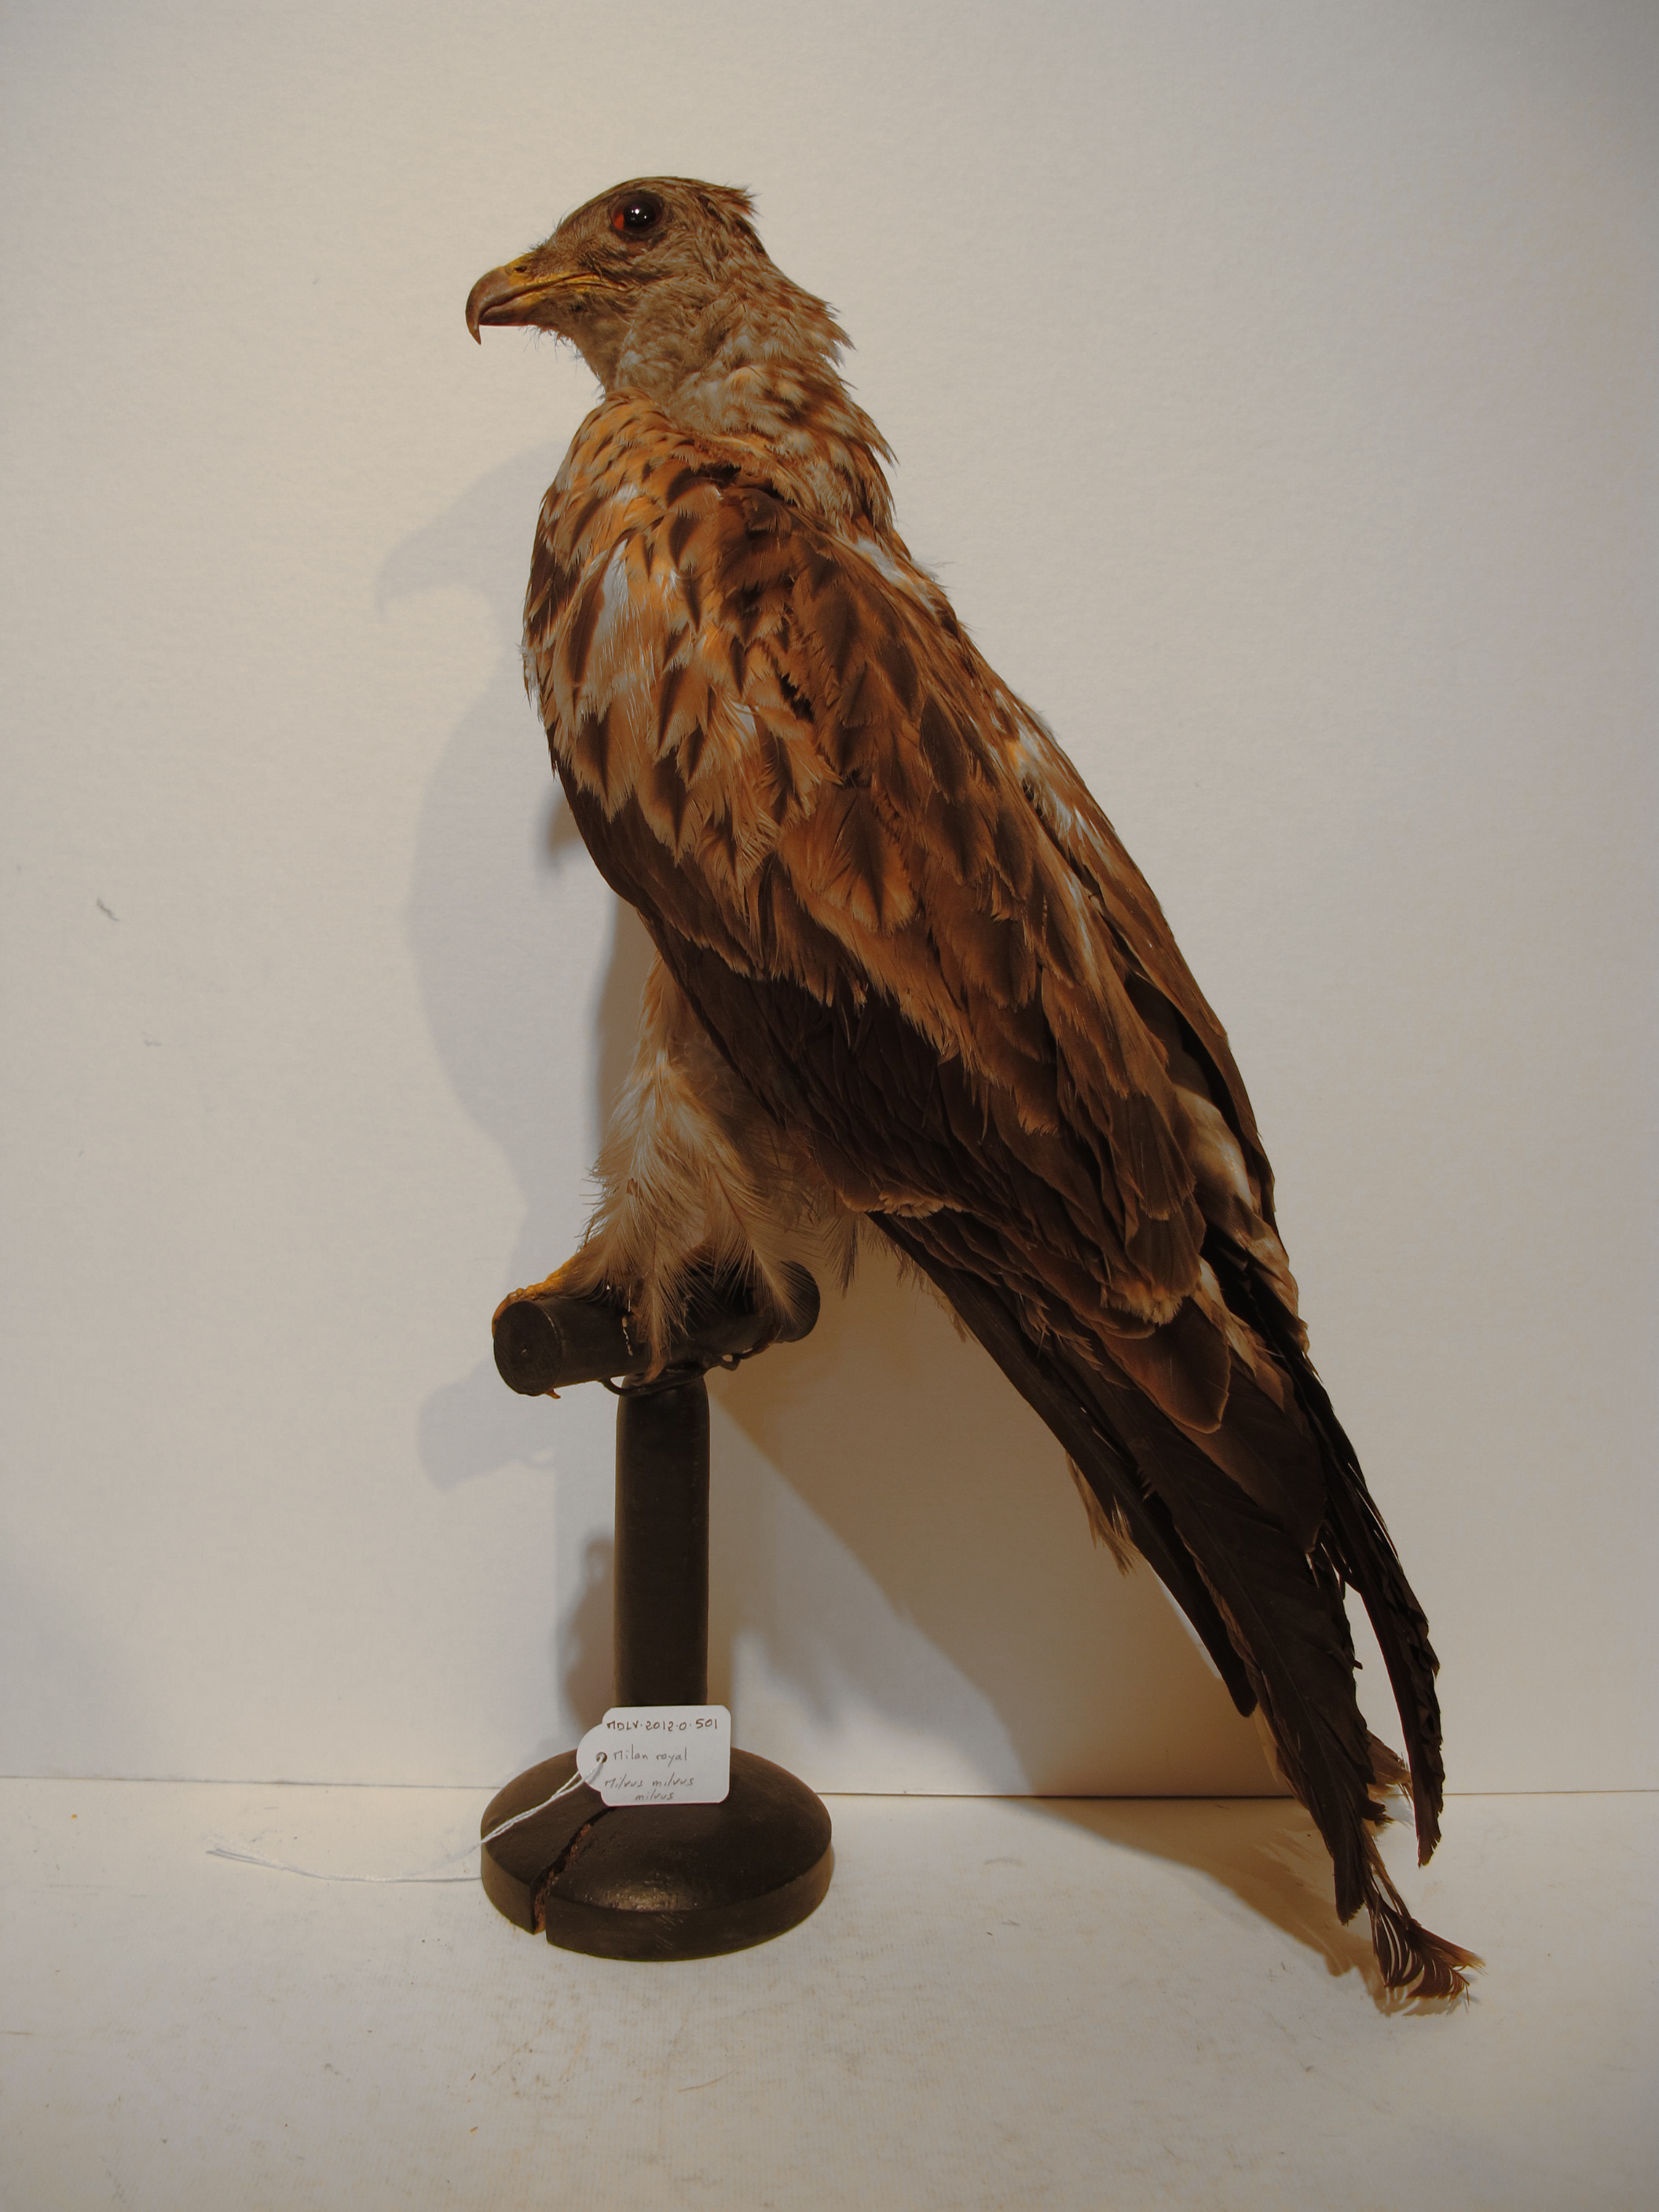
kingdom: Animalia
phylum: Chordata
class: Aves
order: Accipitriformes
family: Accipitridae
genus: Milvus
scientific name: Milvus milvus
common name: Red Kite
